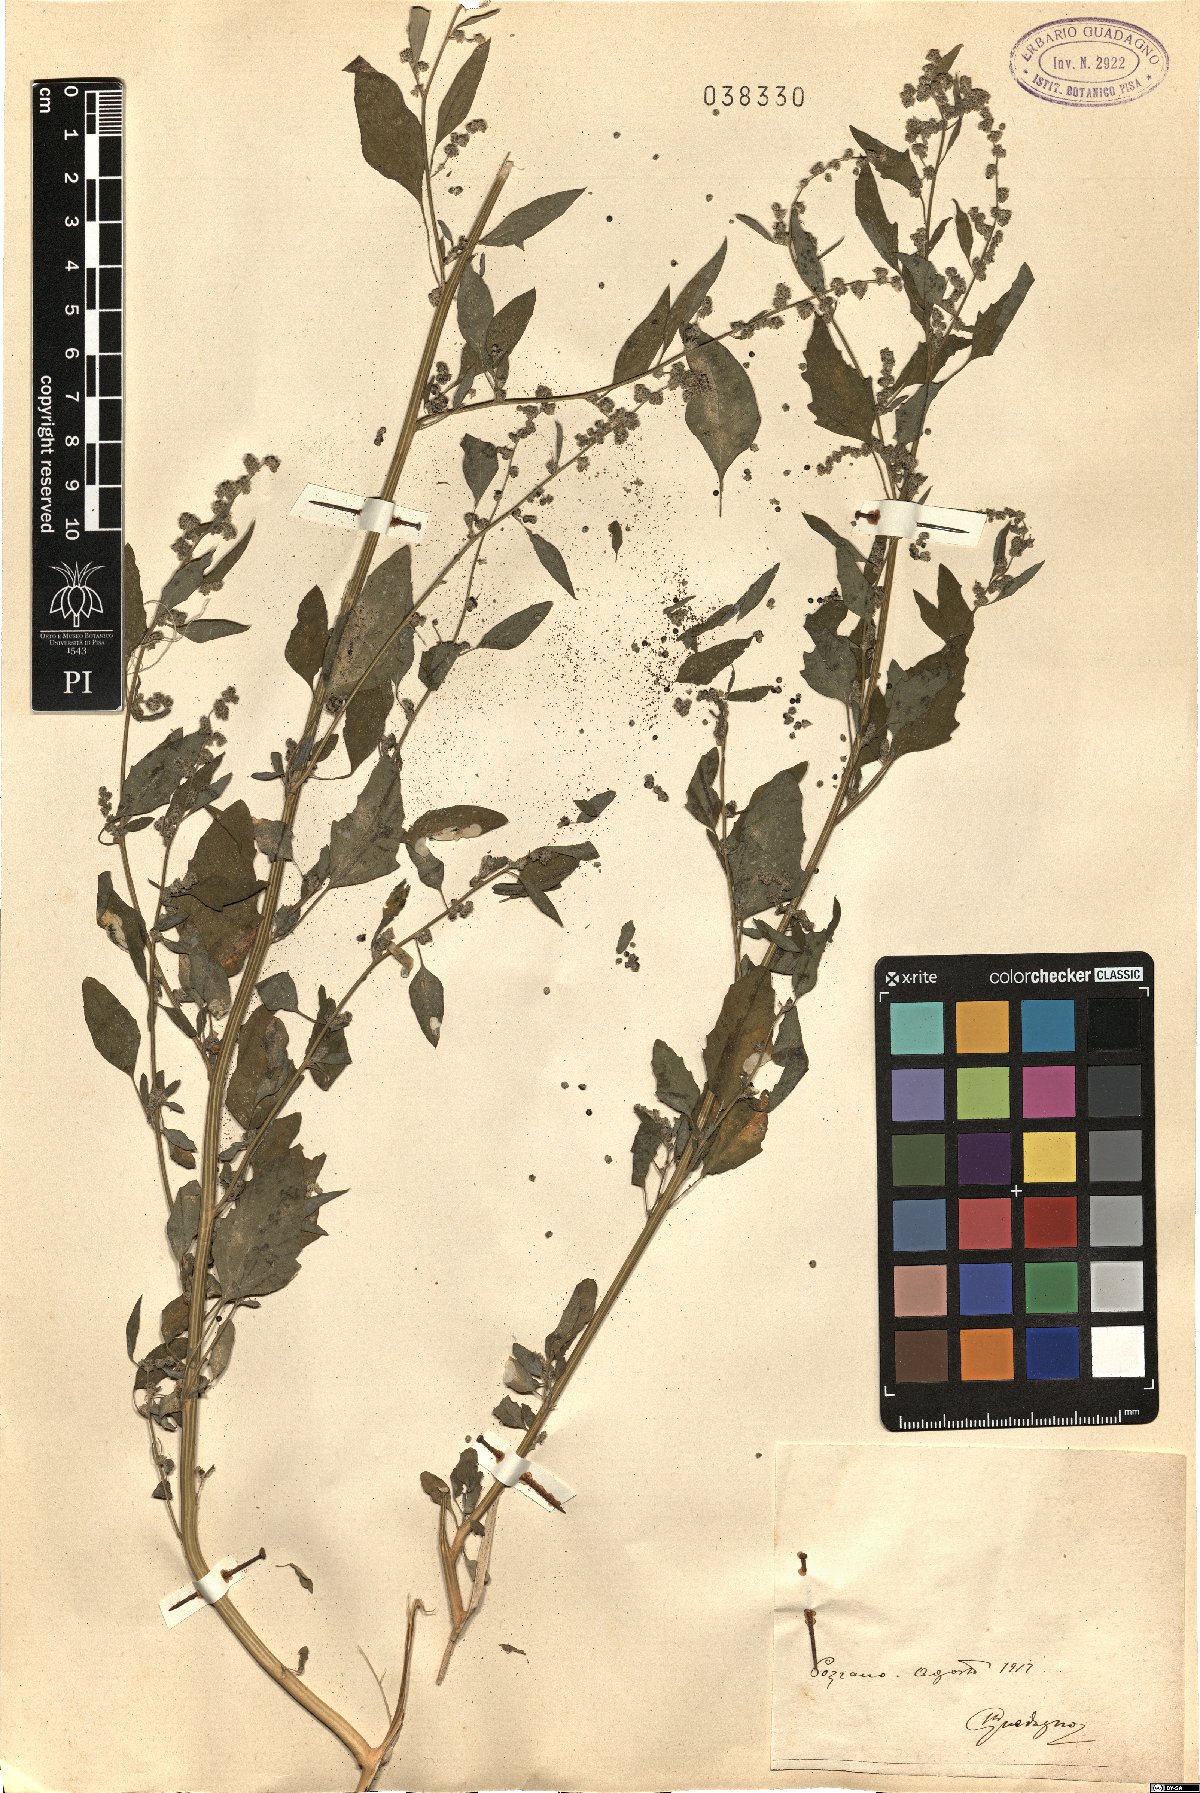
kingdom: Plantae
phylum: Tracheophyta
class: Magnoliopsida
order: Caryophyllales
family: Amaranthaceae
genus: Chenopodium
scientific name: Chenopodium
